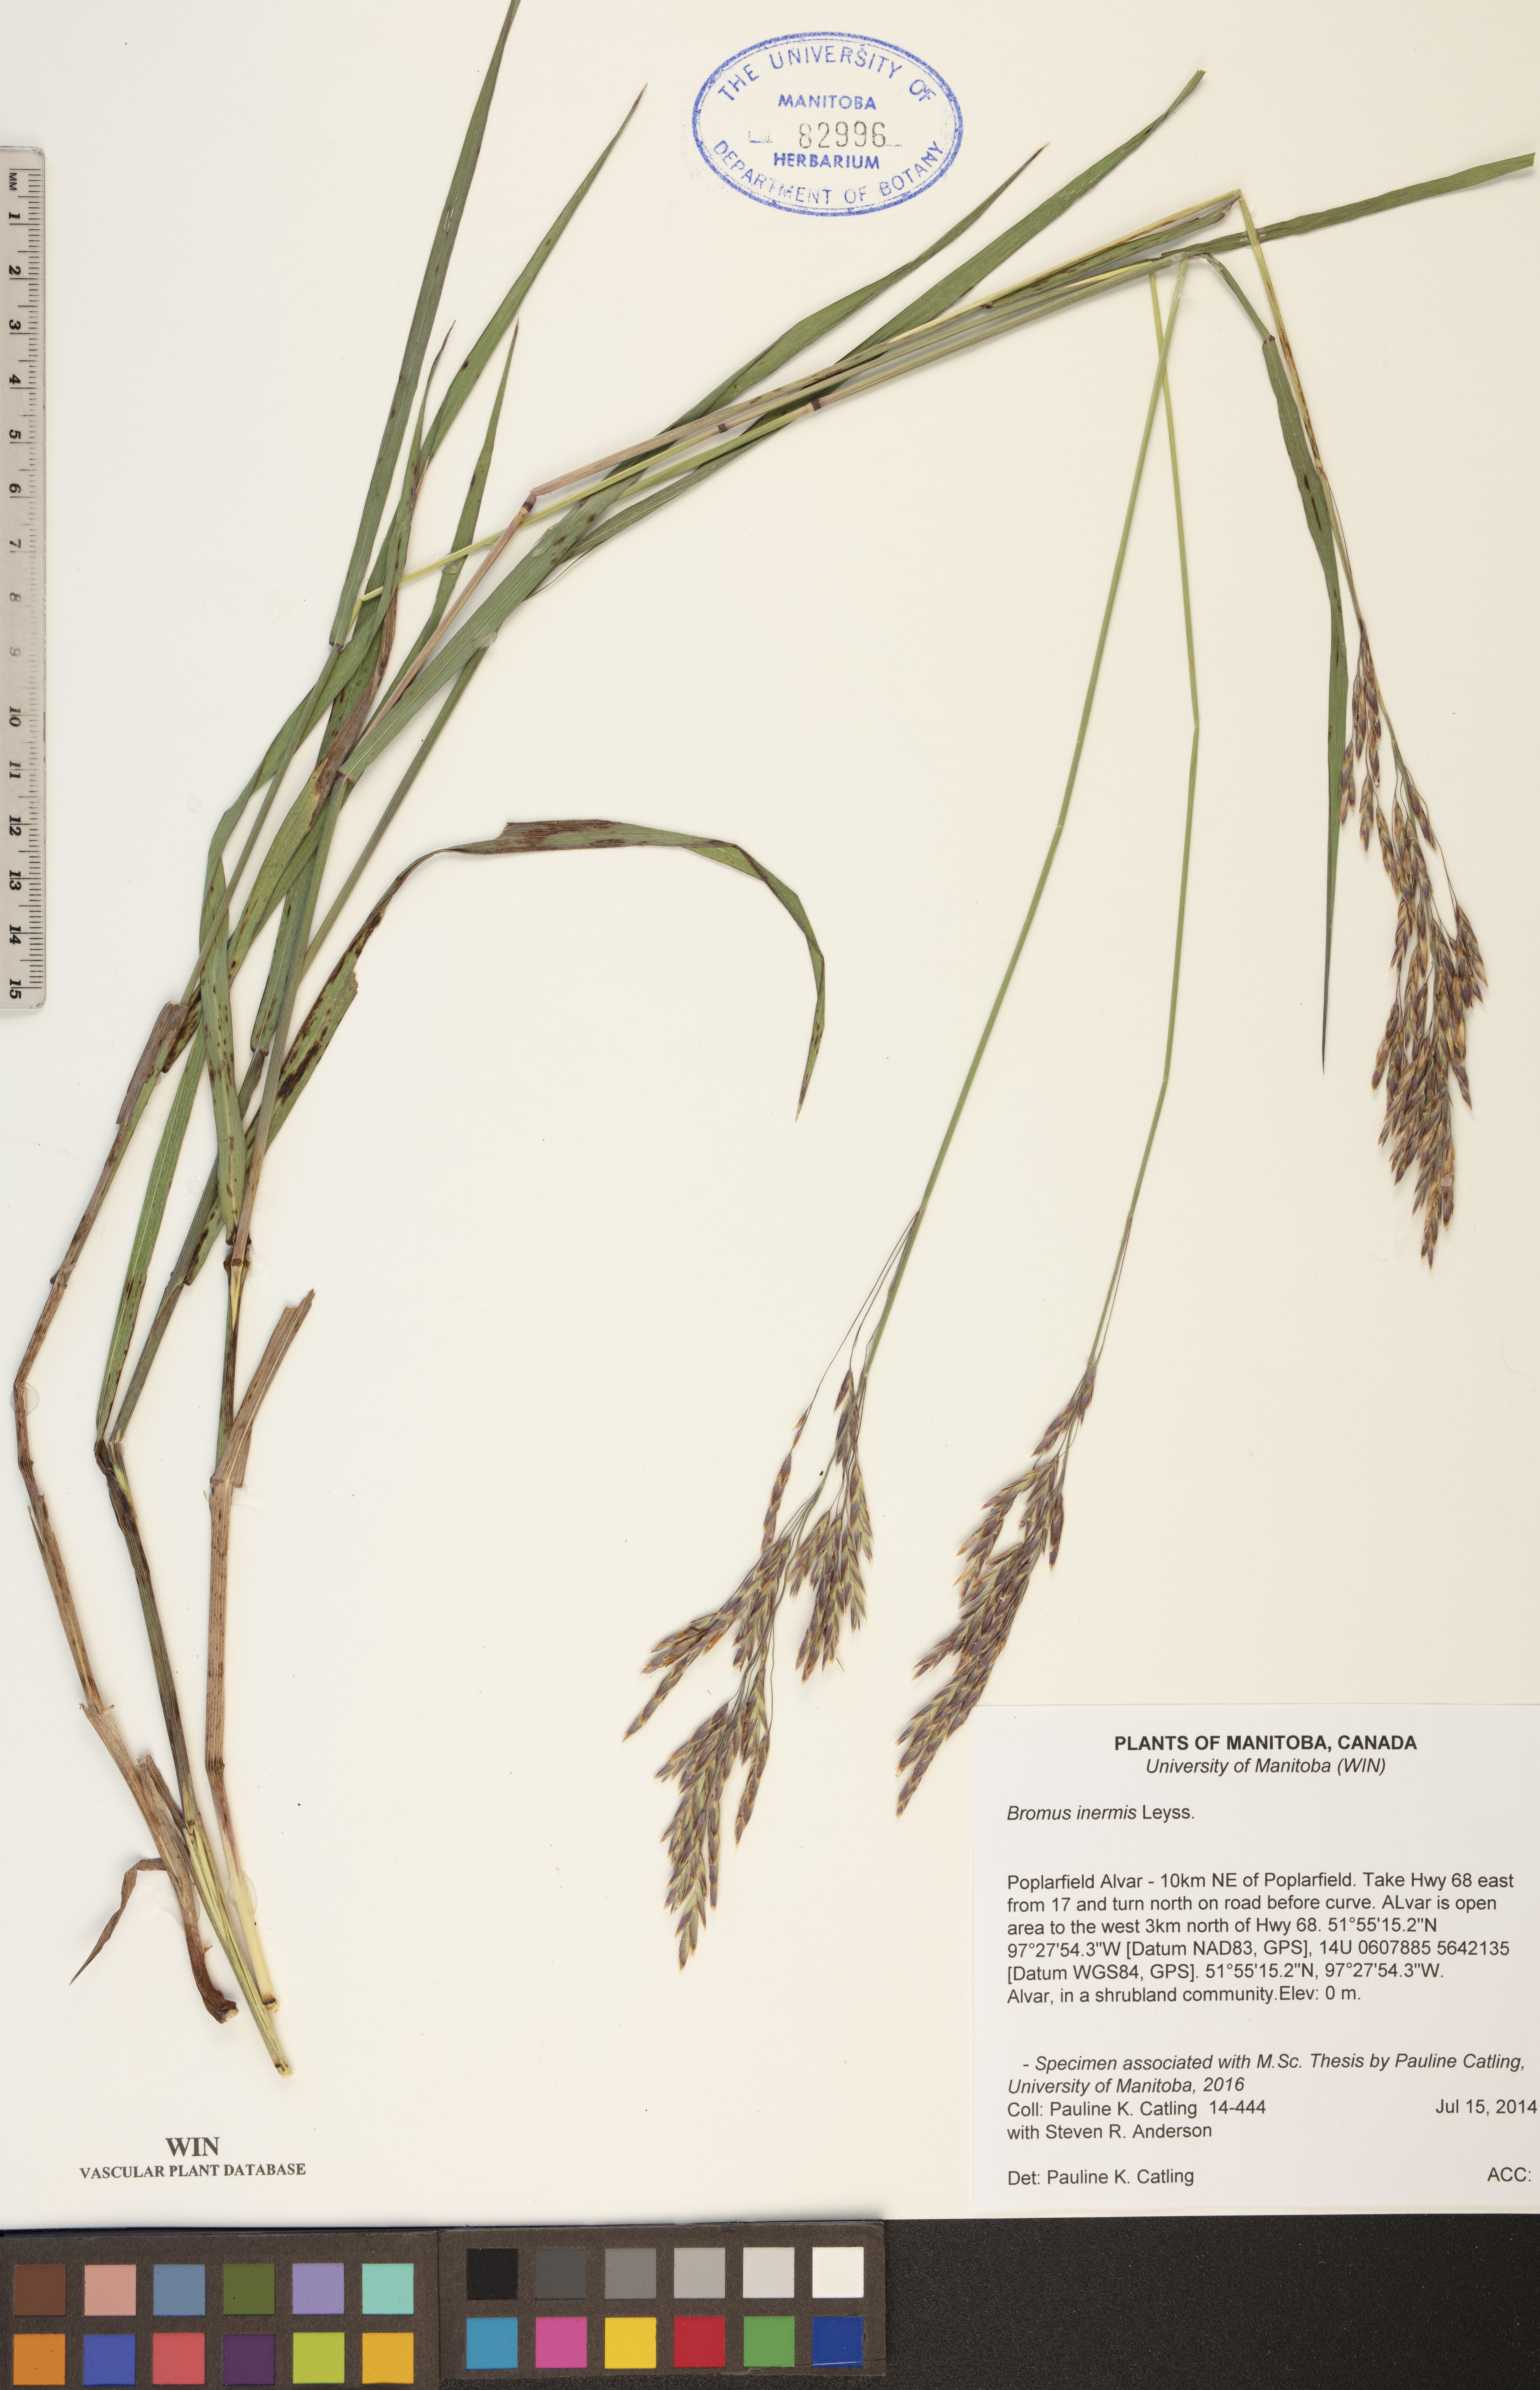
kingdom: Plantae
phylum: Tracheophyta
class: Liliopsida
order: Poales
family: Poaceae
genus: Bromus
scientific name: Bromus inermis
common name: Smooth brome
